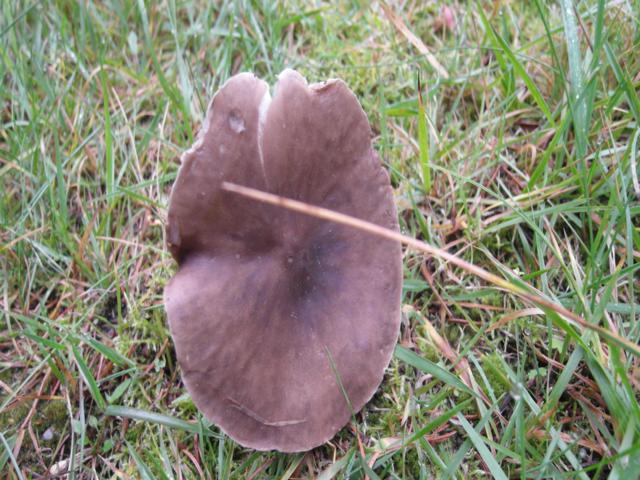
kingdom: Fungi
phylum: Basidiomycota
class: Agaricomycetes
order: Agaricales
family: Tricholomataceae
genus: Melanoleuca
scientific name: Melanoleuca
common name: munkehat
